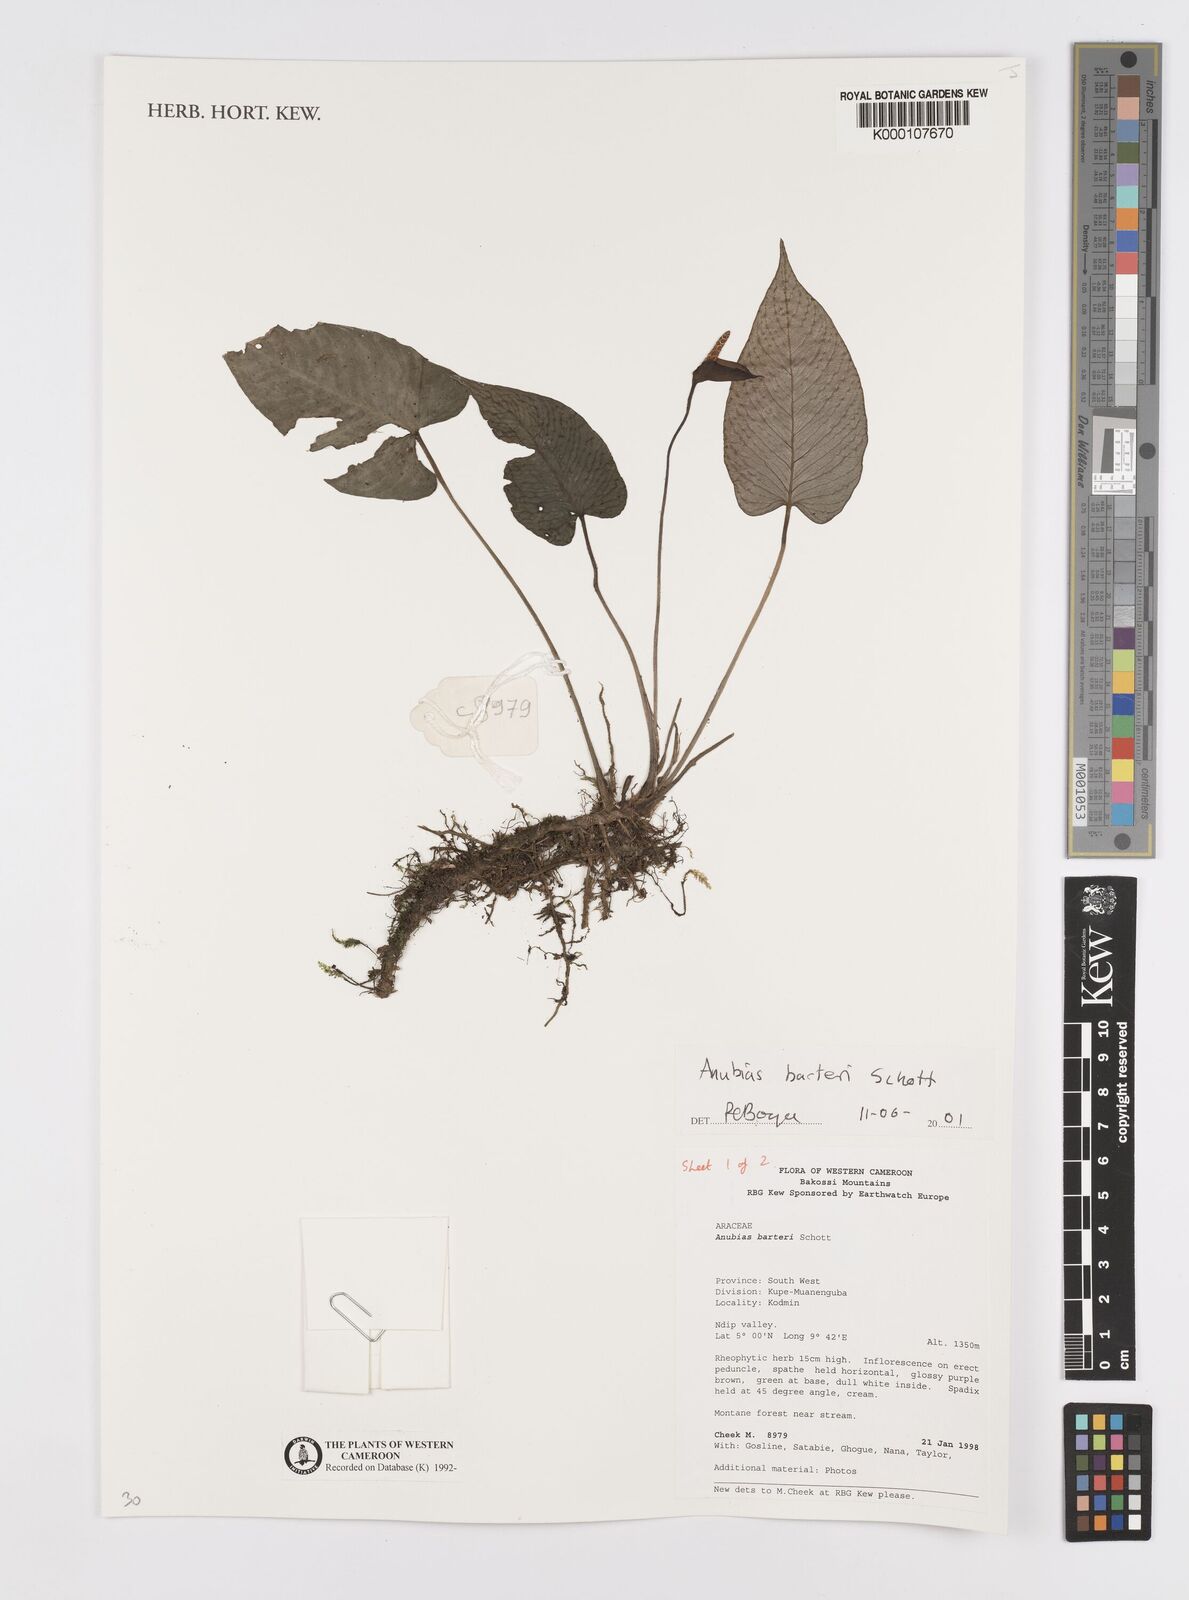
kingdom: Plantae
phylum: Tracheophyta
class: Liliopsida
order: Alismatales
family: Araceae
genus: Anubias
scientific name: Anubias barteri
